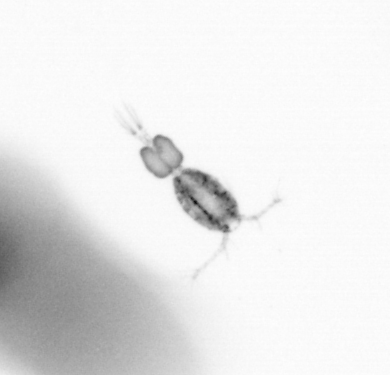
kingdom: Animalia
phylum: Arthropoda
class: Copepoda
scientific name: Copepoda
